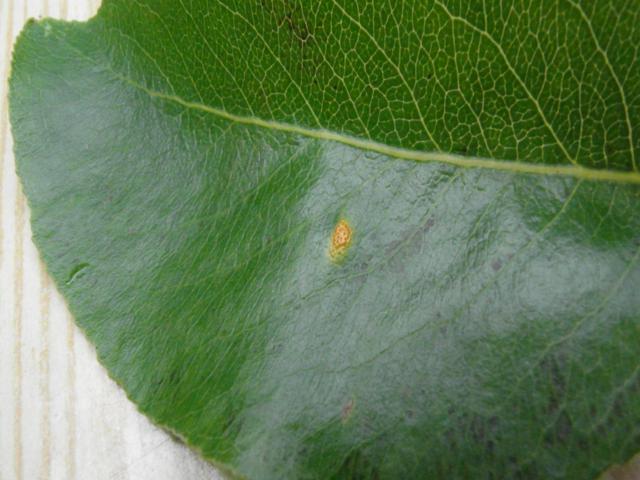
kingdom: Fungi
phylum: Basidiomycota
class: Pucciniomycetes
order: Pucciniales
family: Gymnosporangiaceae
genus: Gymnosporangium
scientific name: Gymnosporangium sabinae
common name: pæregitter-bævrerust
